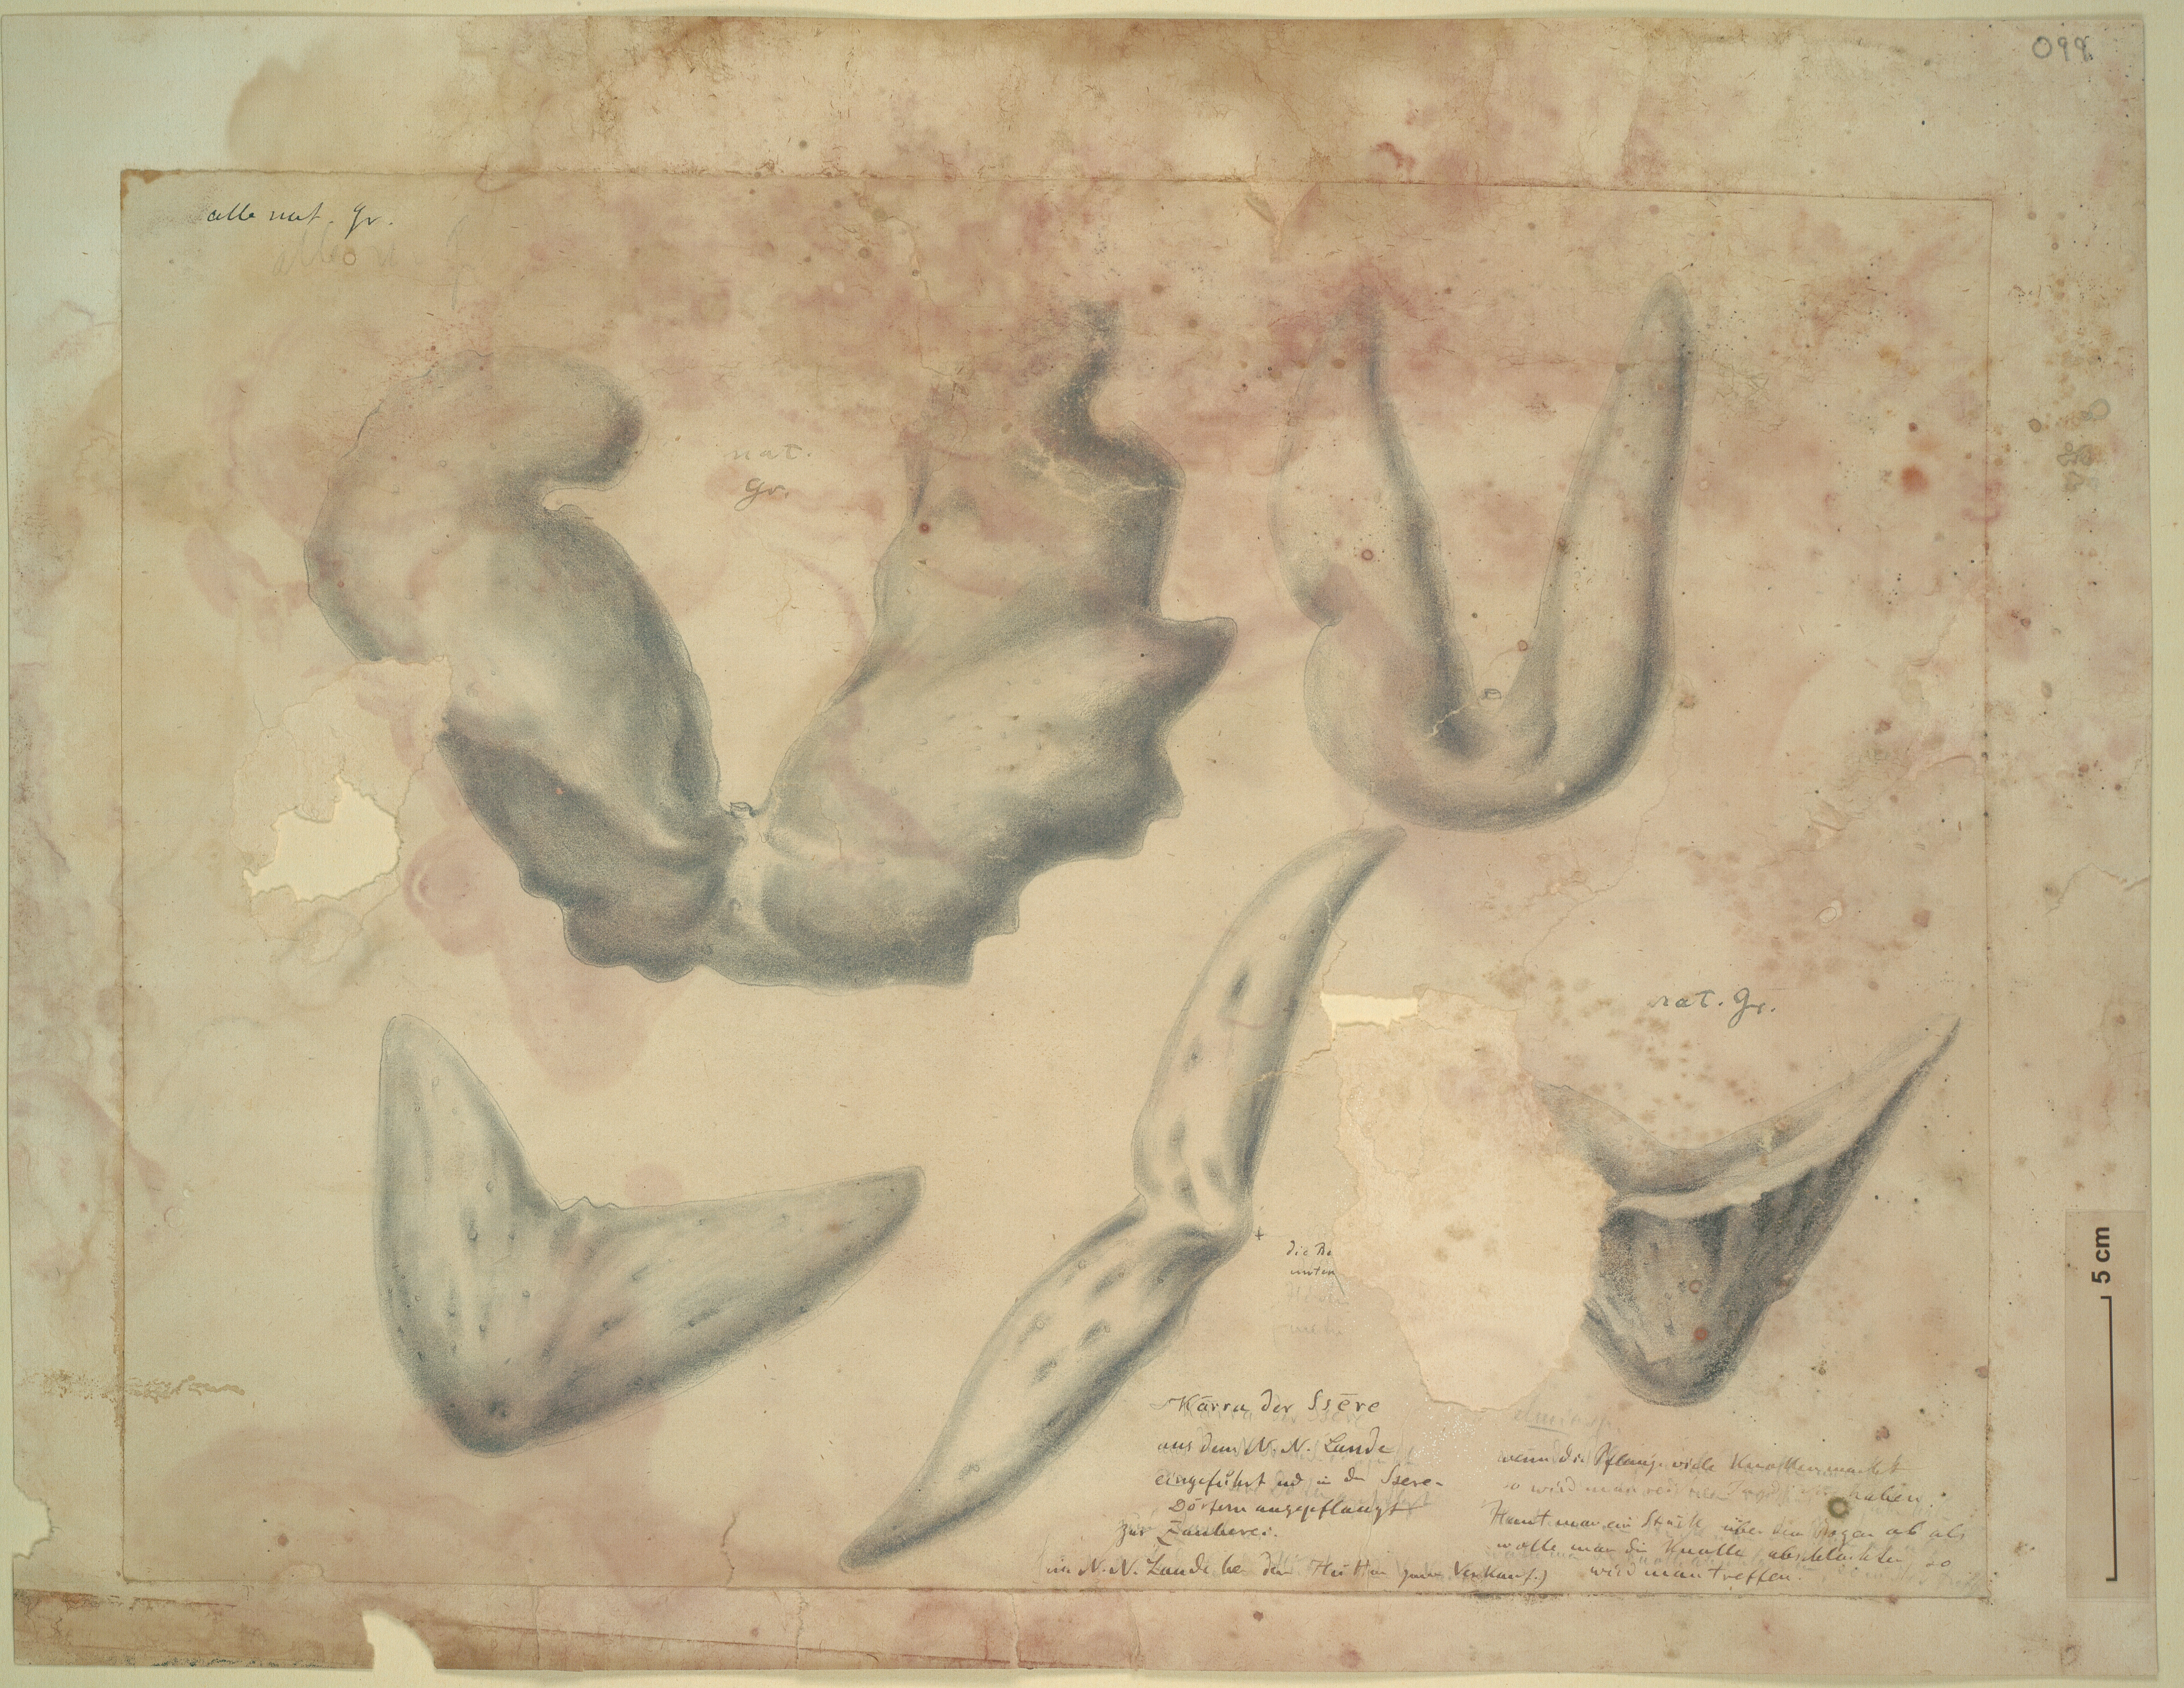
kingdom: Plantae
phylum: Tracheophyta
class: Liliopsida
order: Dioscoreales
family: Dioscoreaceae
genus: Dioscorea
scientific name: Dioscorea
